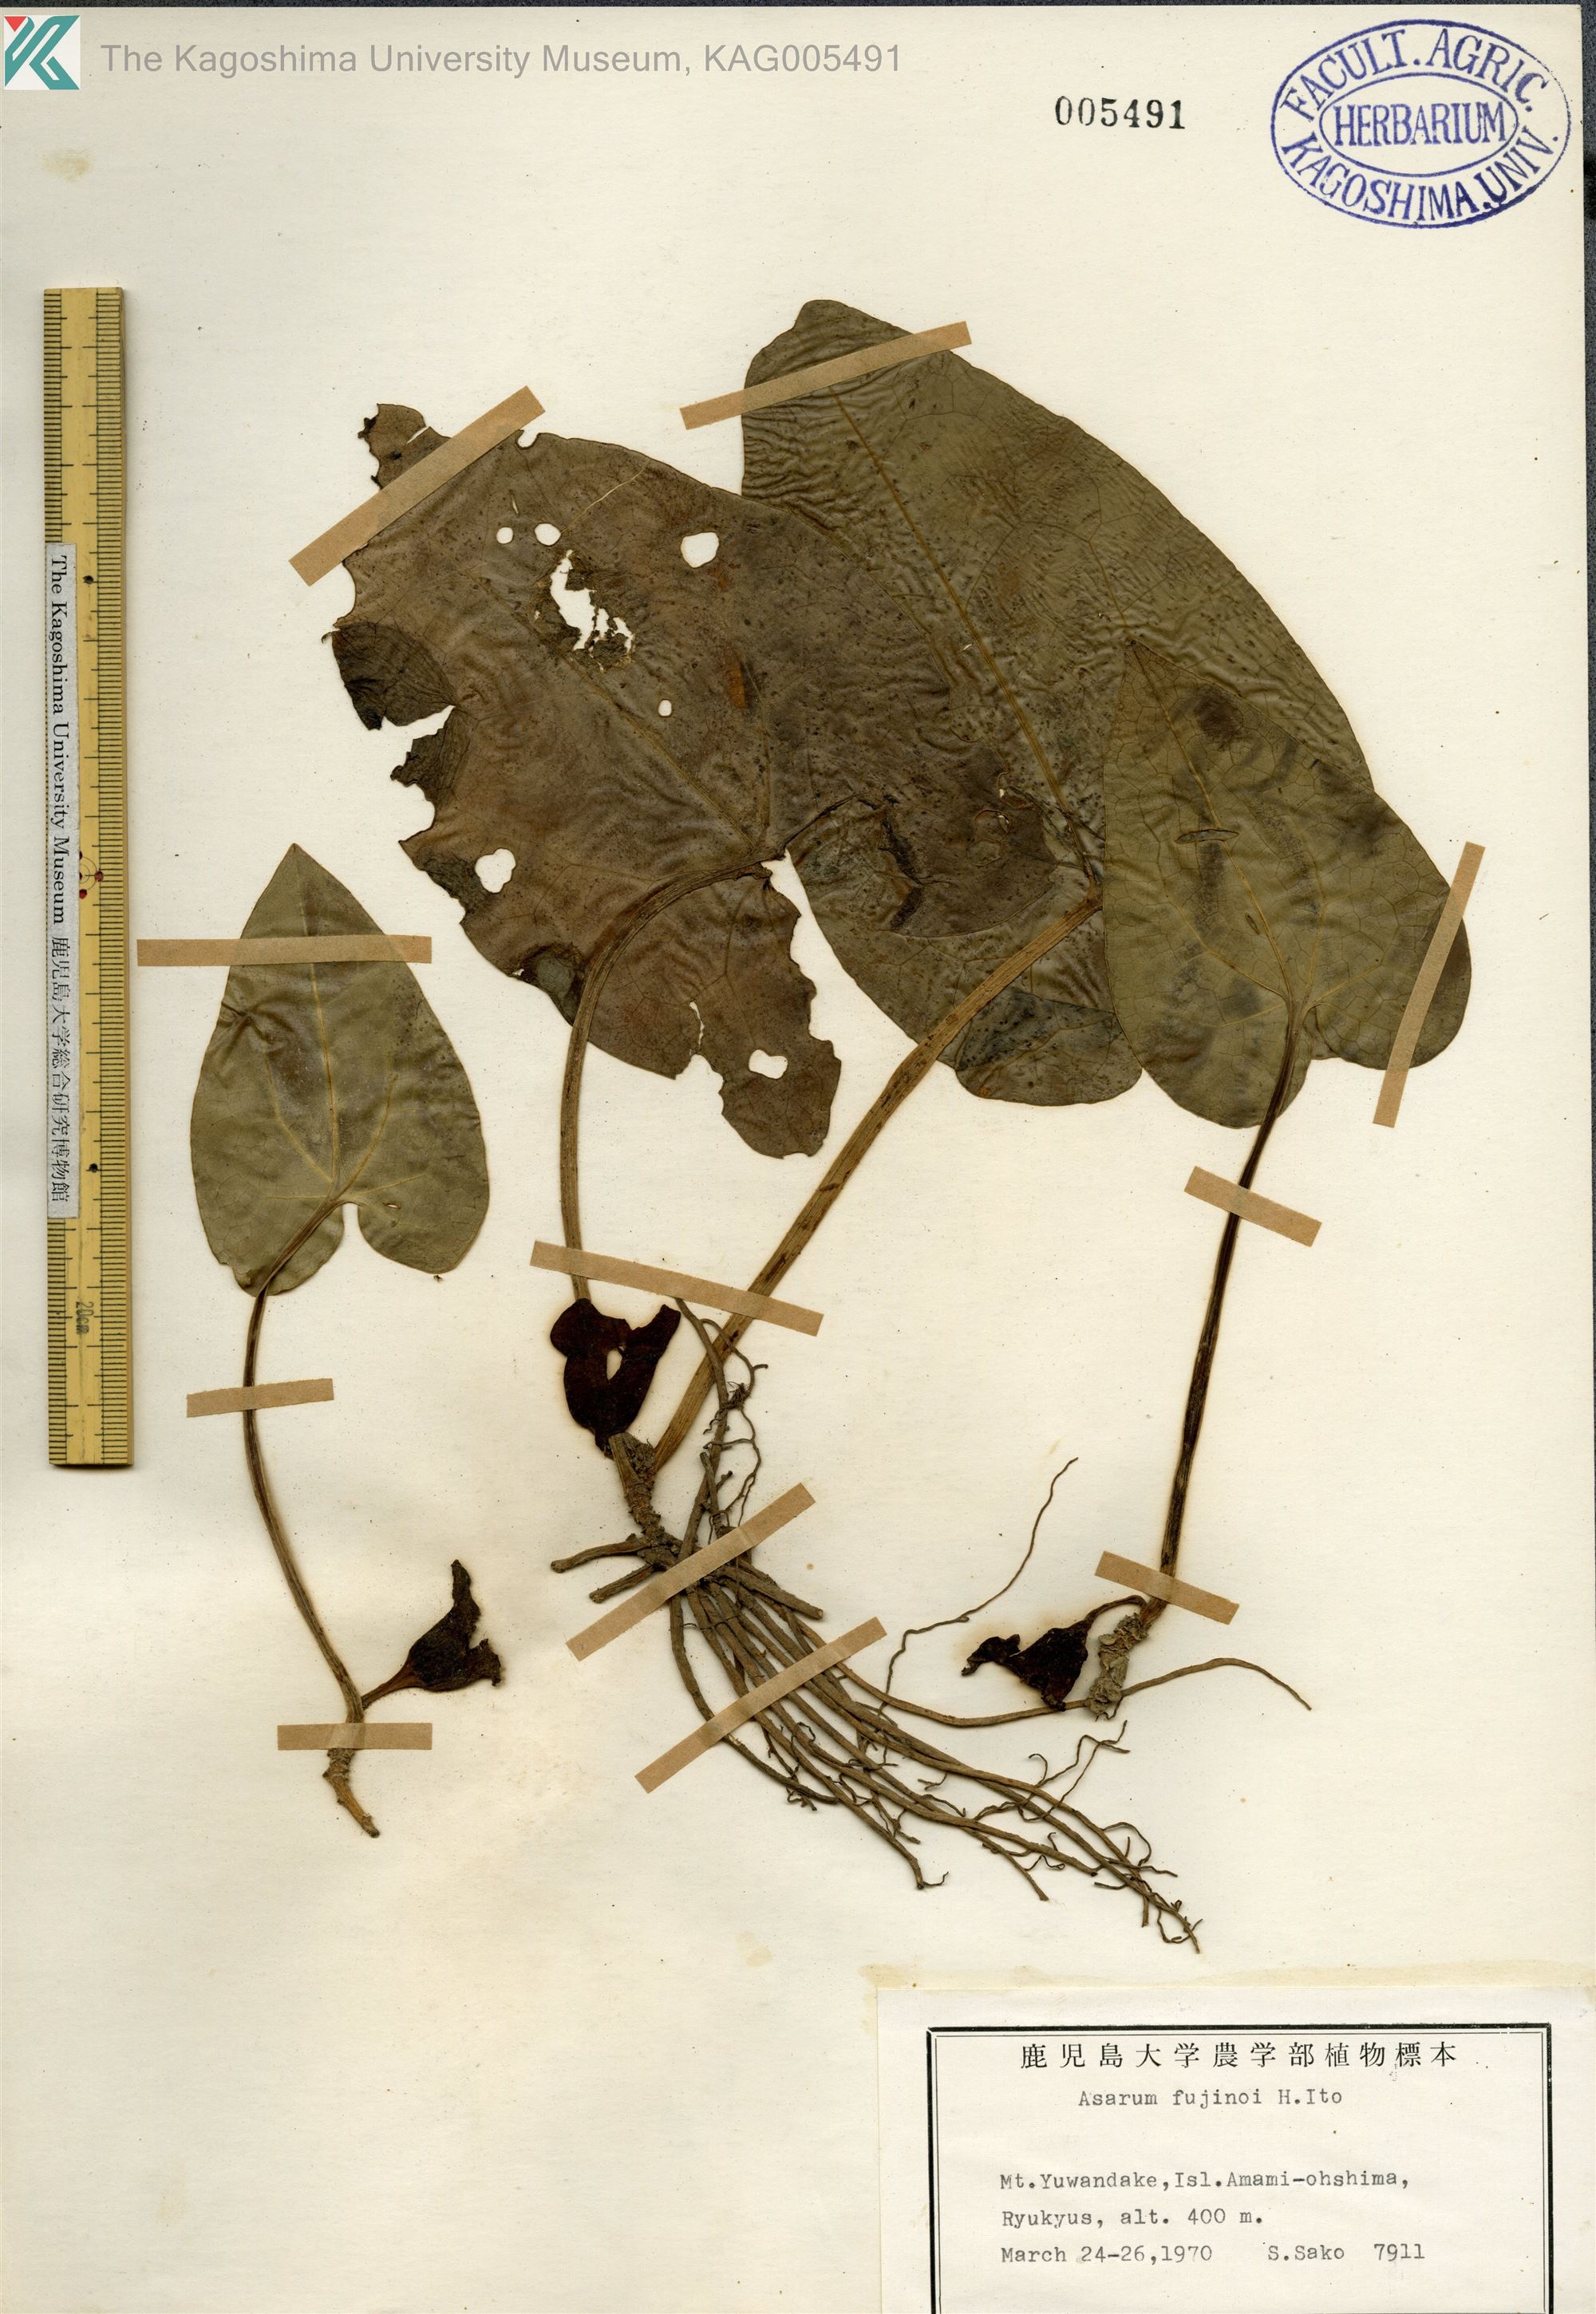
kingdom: Plantae
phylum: Tracheophyta
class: Magnoliopsida
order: Piperales
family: Aristolochiaceae
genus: Asarum
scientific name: Asarum
